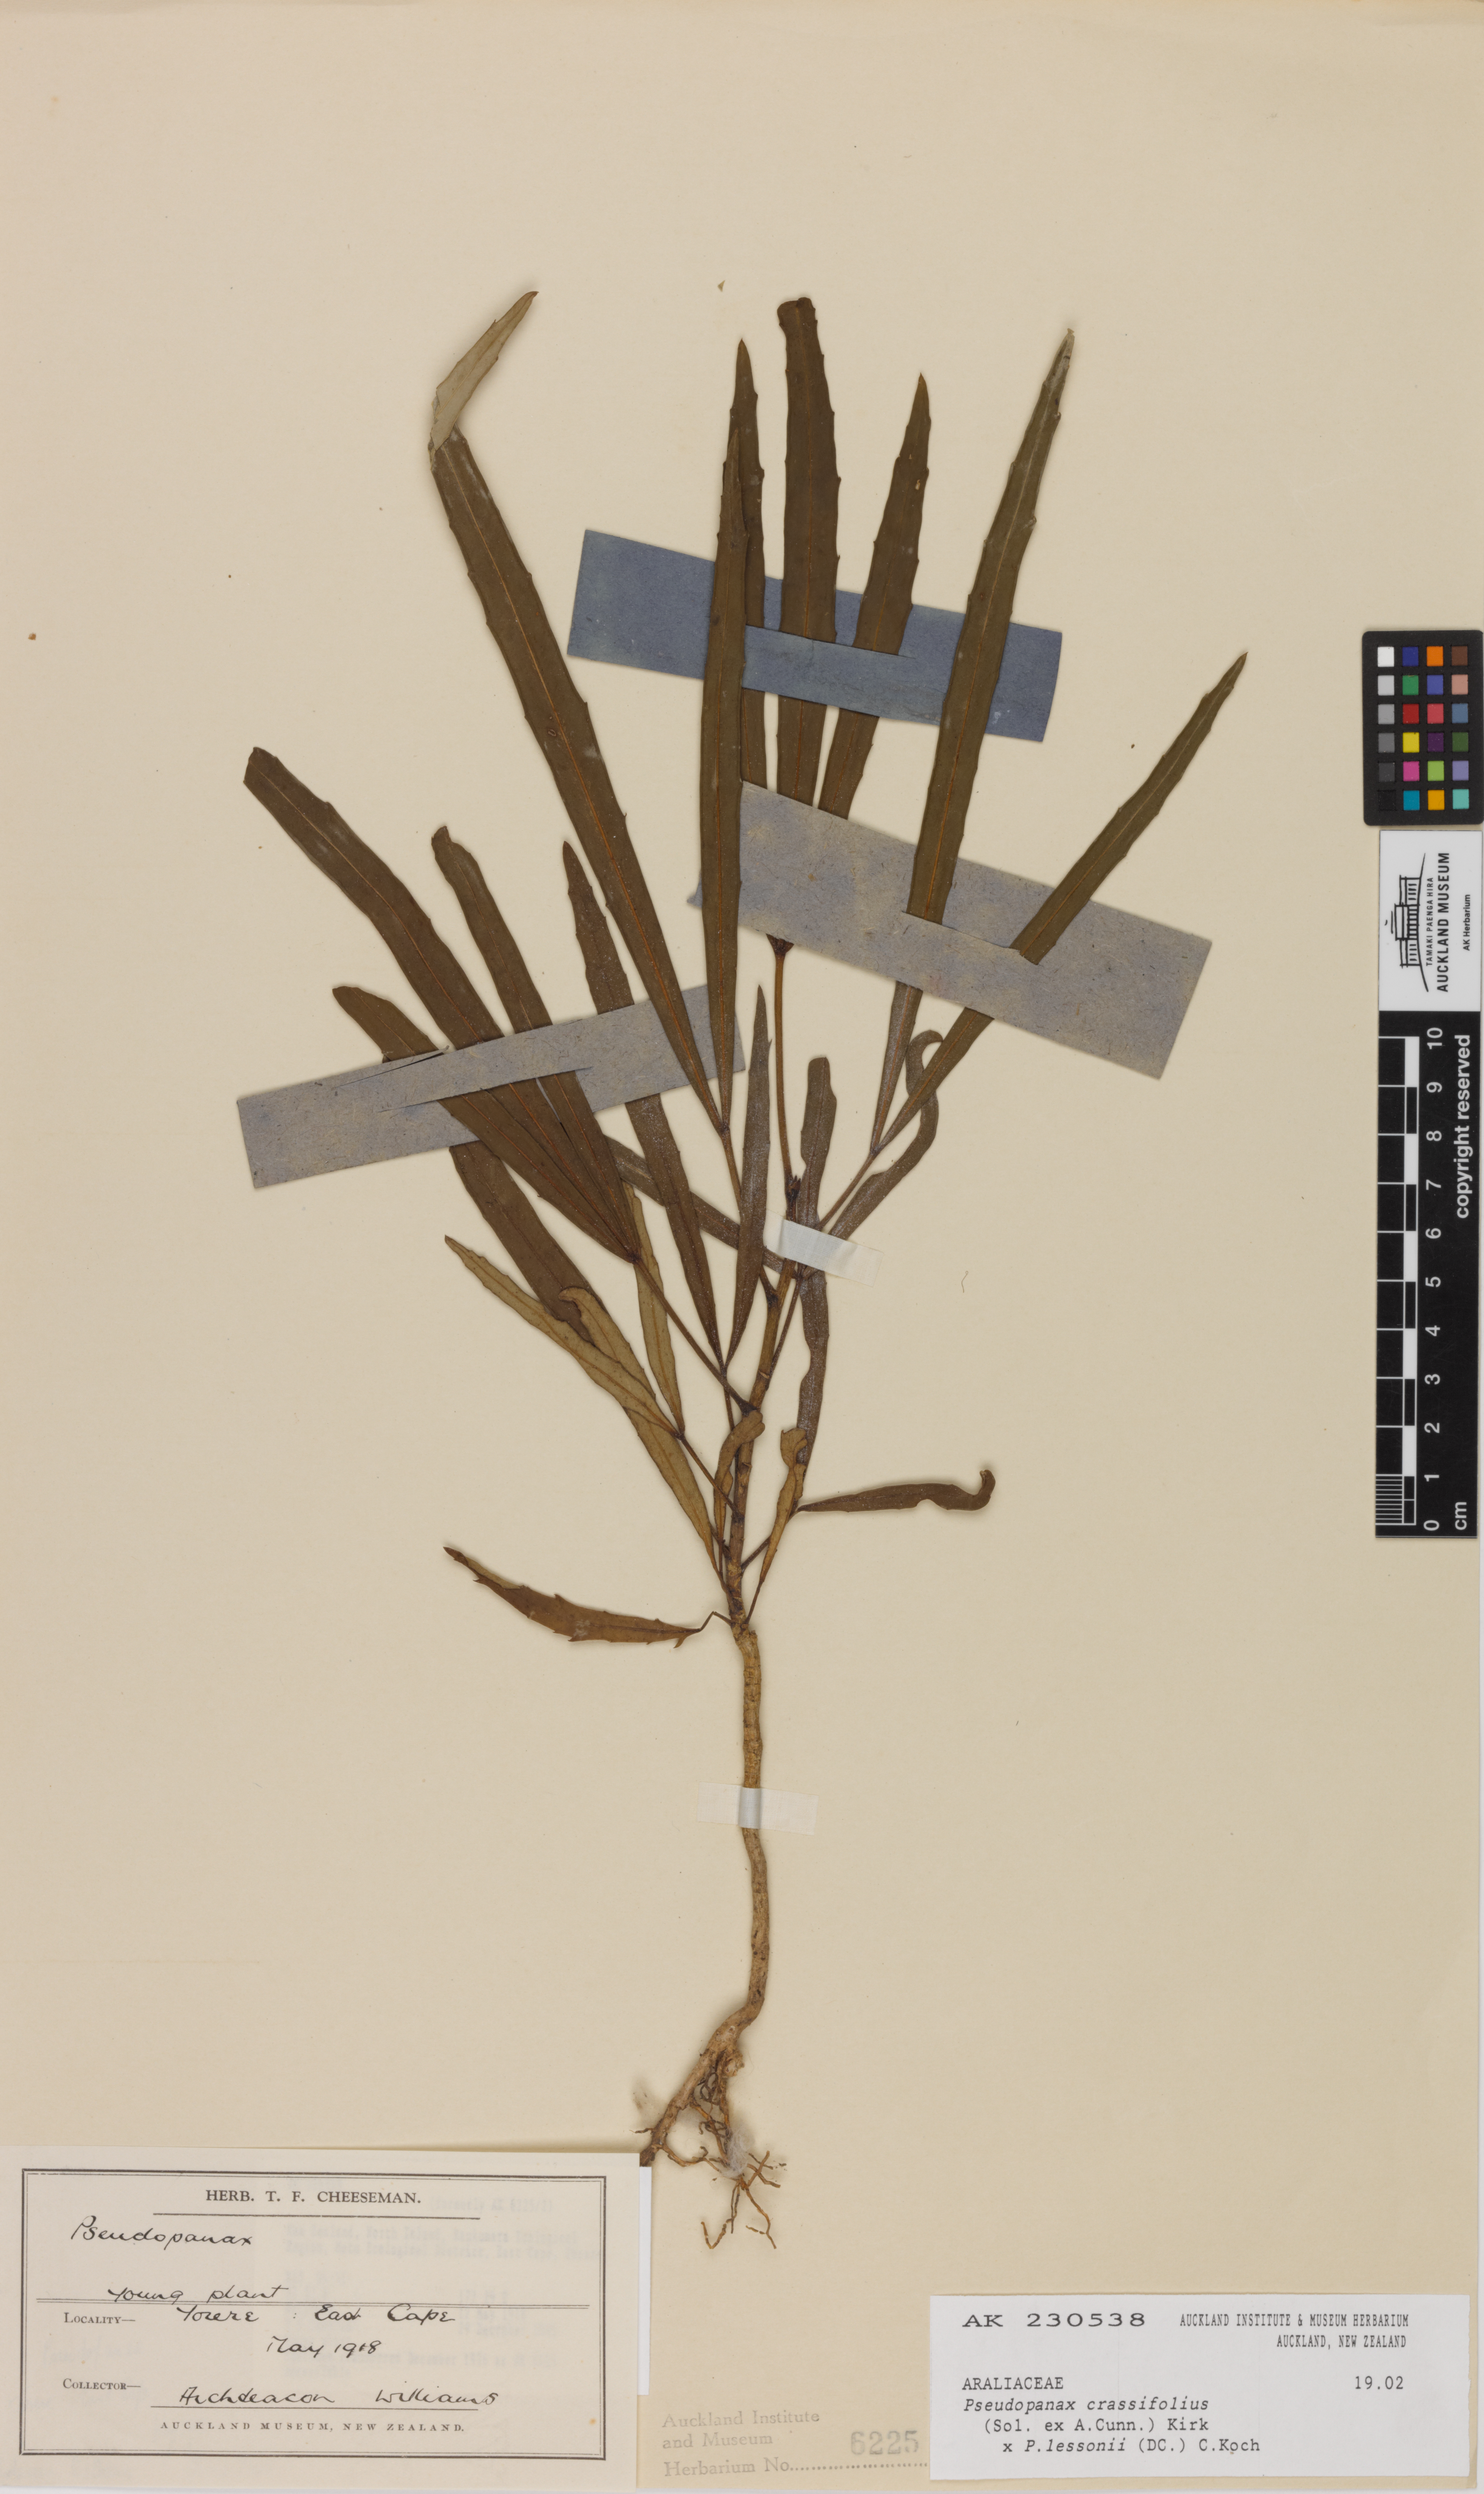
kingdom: Plantae
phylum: Tracheophyta
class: Magnoliopsida
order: Apiales
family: Araliaceae
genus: Pseudopanax
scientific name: Pseudopanax
